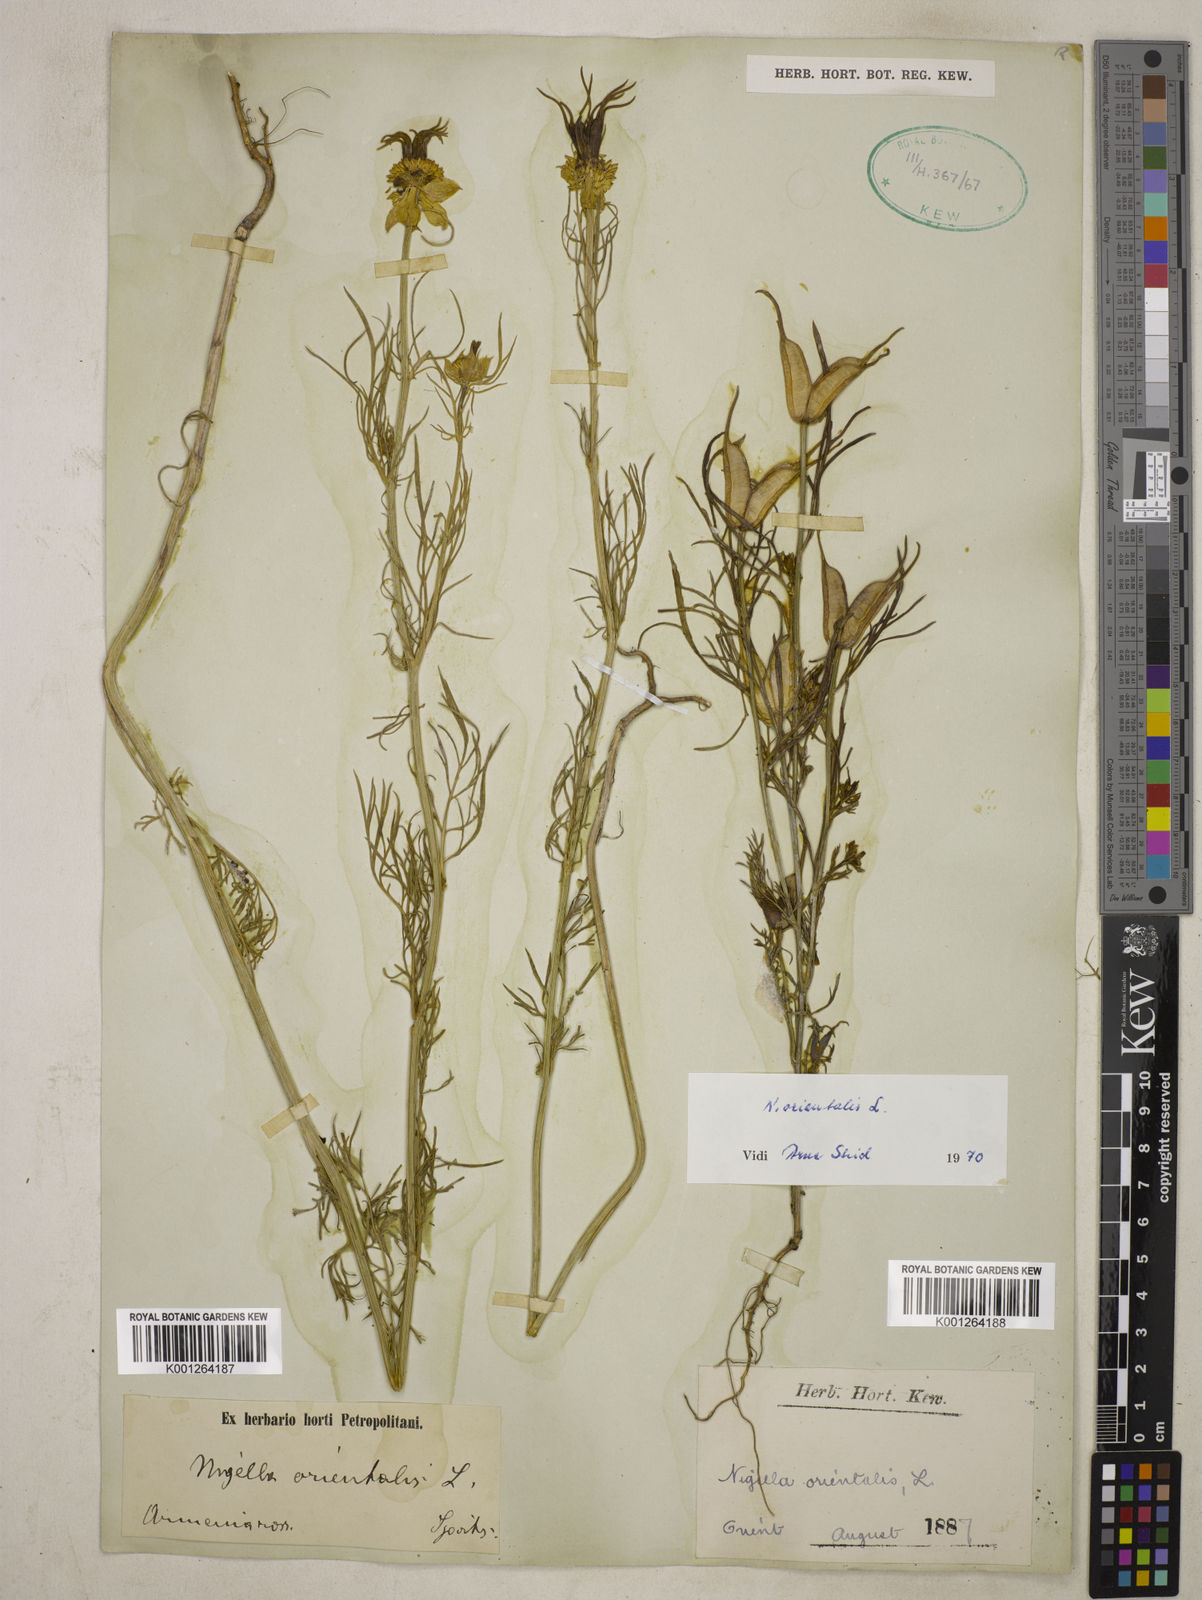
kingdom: Plantae
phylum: Tracheophyta
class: Magnoliopsida
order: Ranunculales
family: Ranunculaceae
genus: Nigella
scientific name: Nigella orientalis
